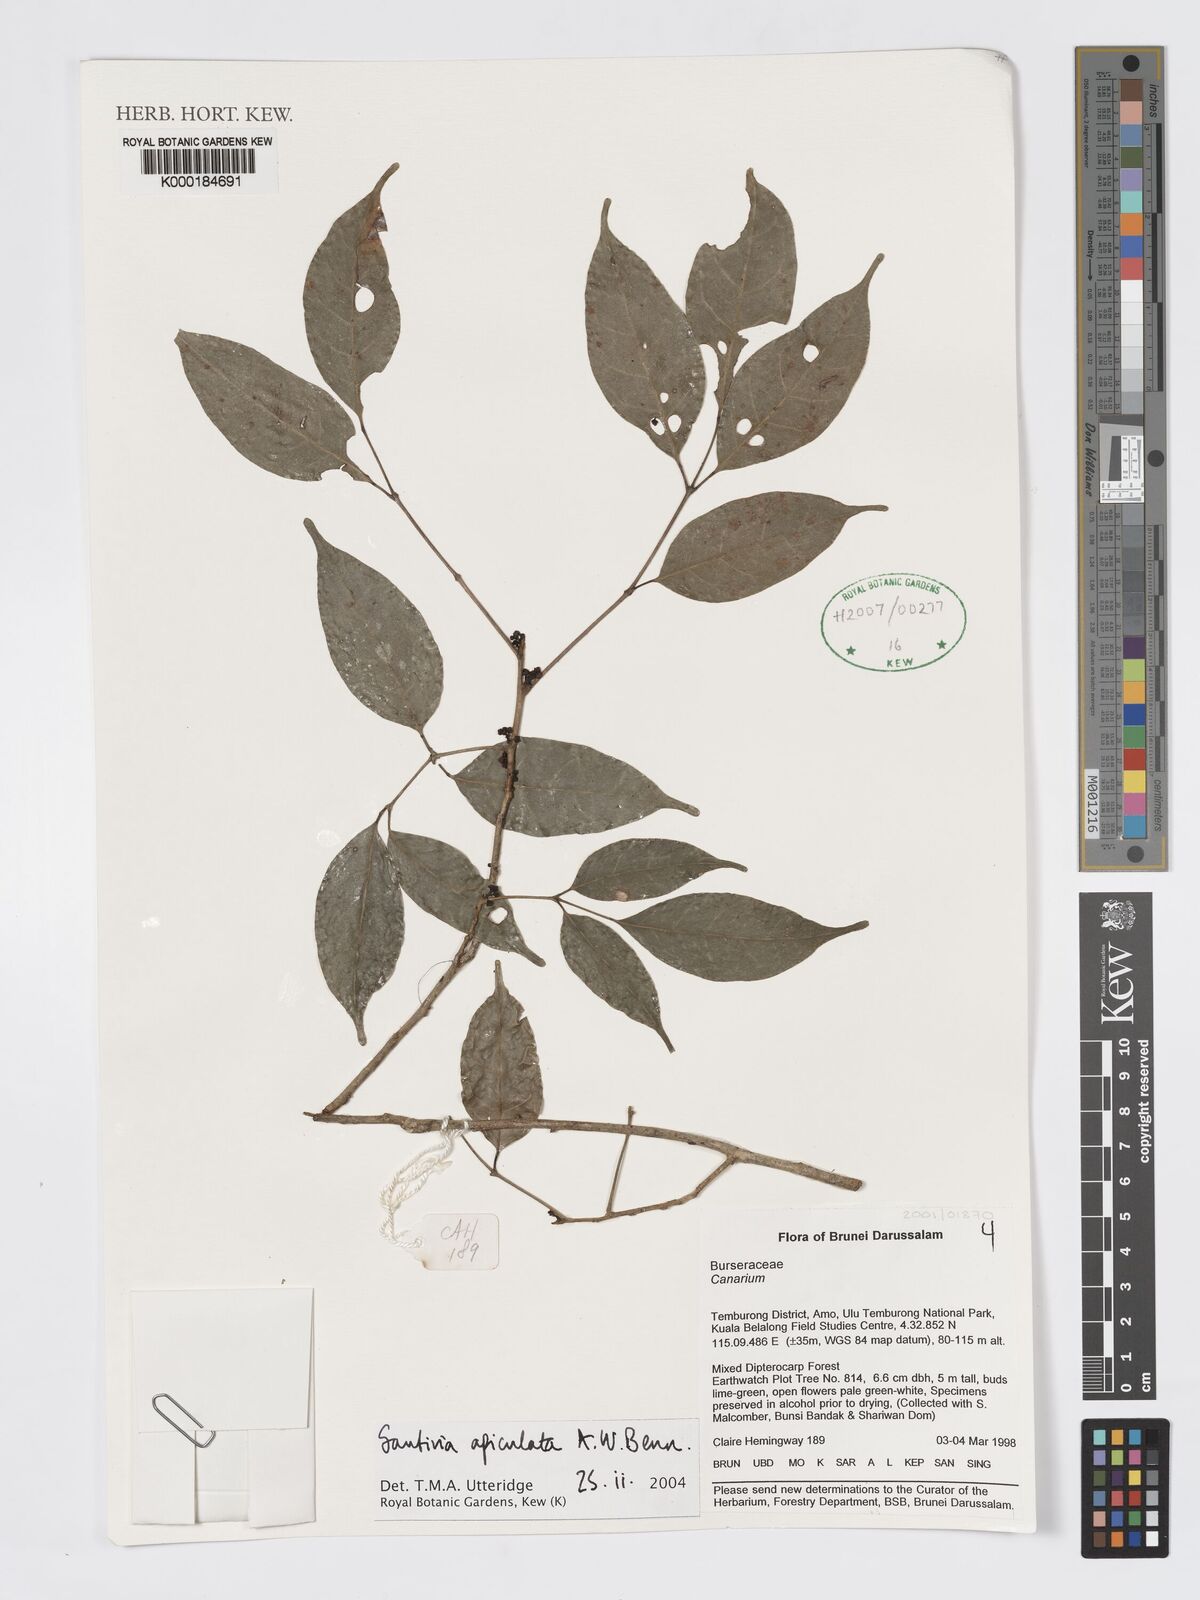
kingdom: Plantae
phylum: Tracheophyta
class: Magnoliopsida
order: Sapindales
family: Burseraceae
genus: Santiria
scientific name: Santiria apiculata
